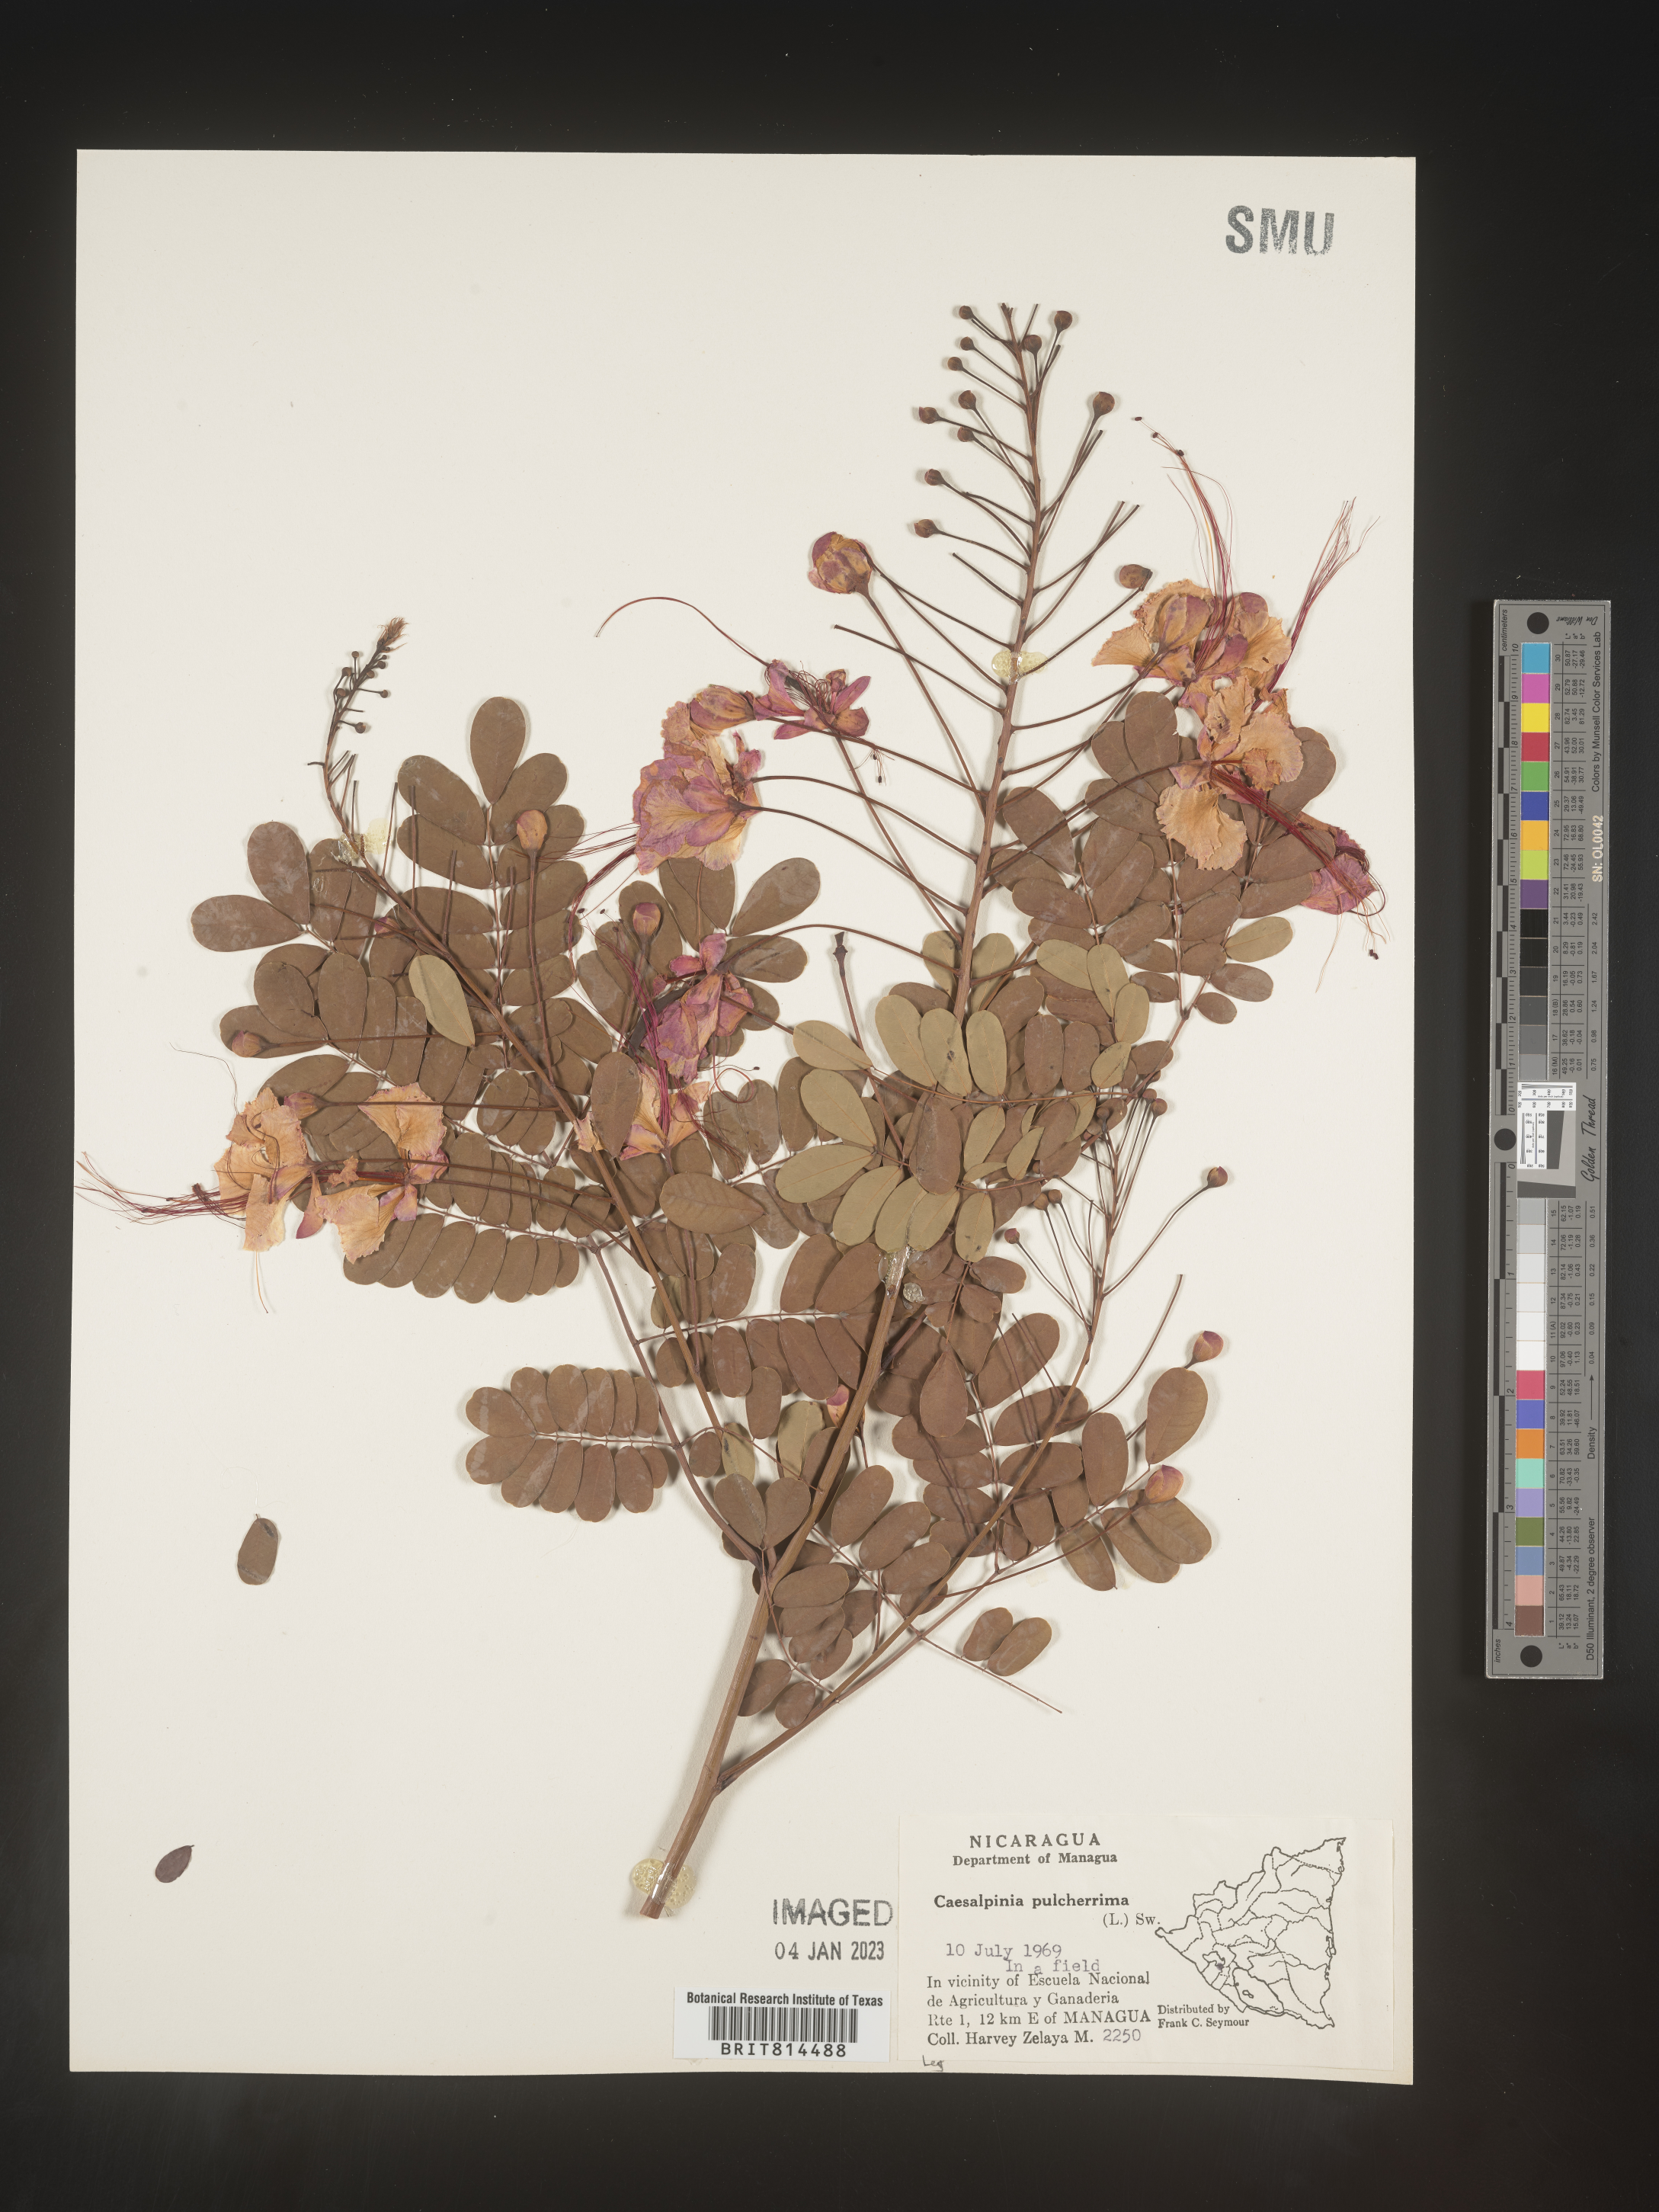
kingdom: Plantae
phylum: Tracheophyta
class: Magnoliopsida
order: Fabales
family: Fabaceae
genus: Caesalpinia
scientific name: Caesalpinia
